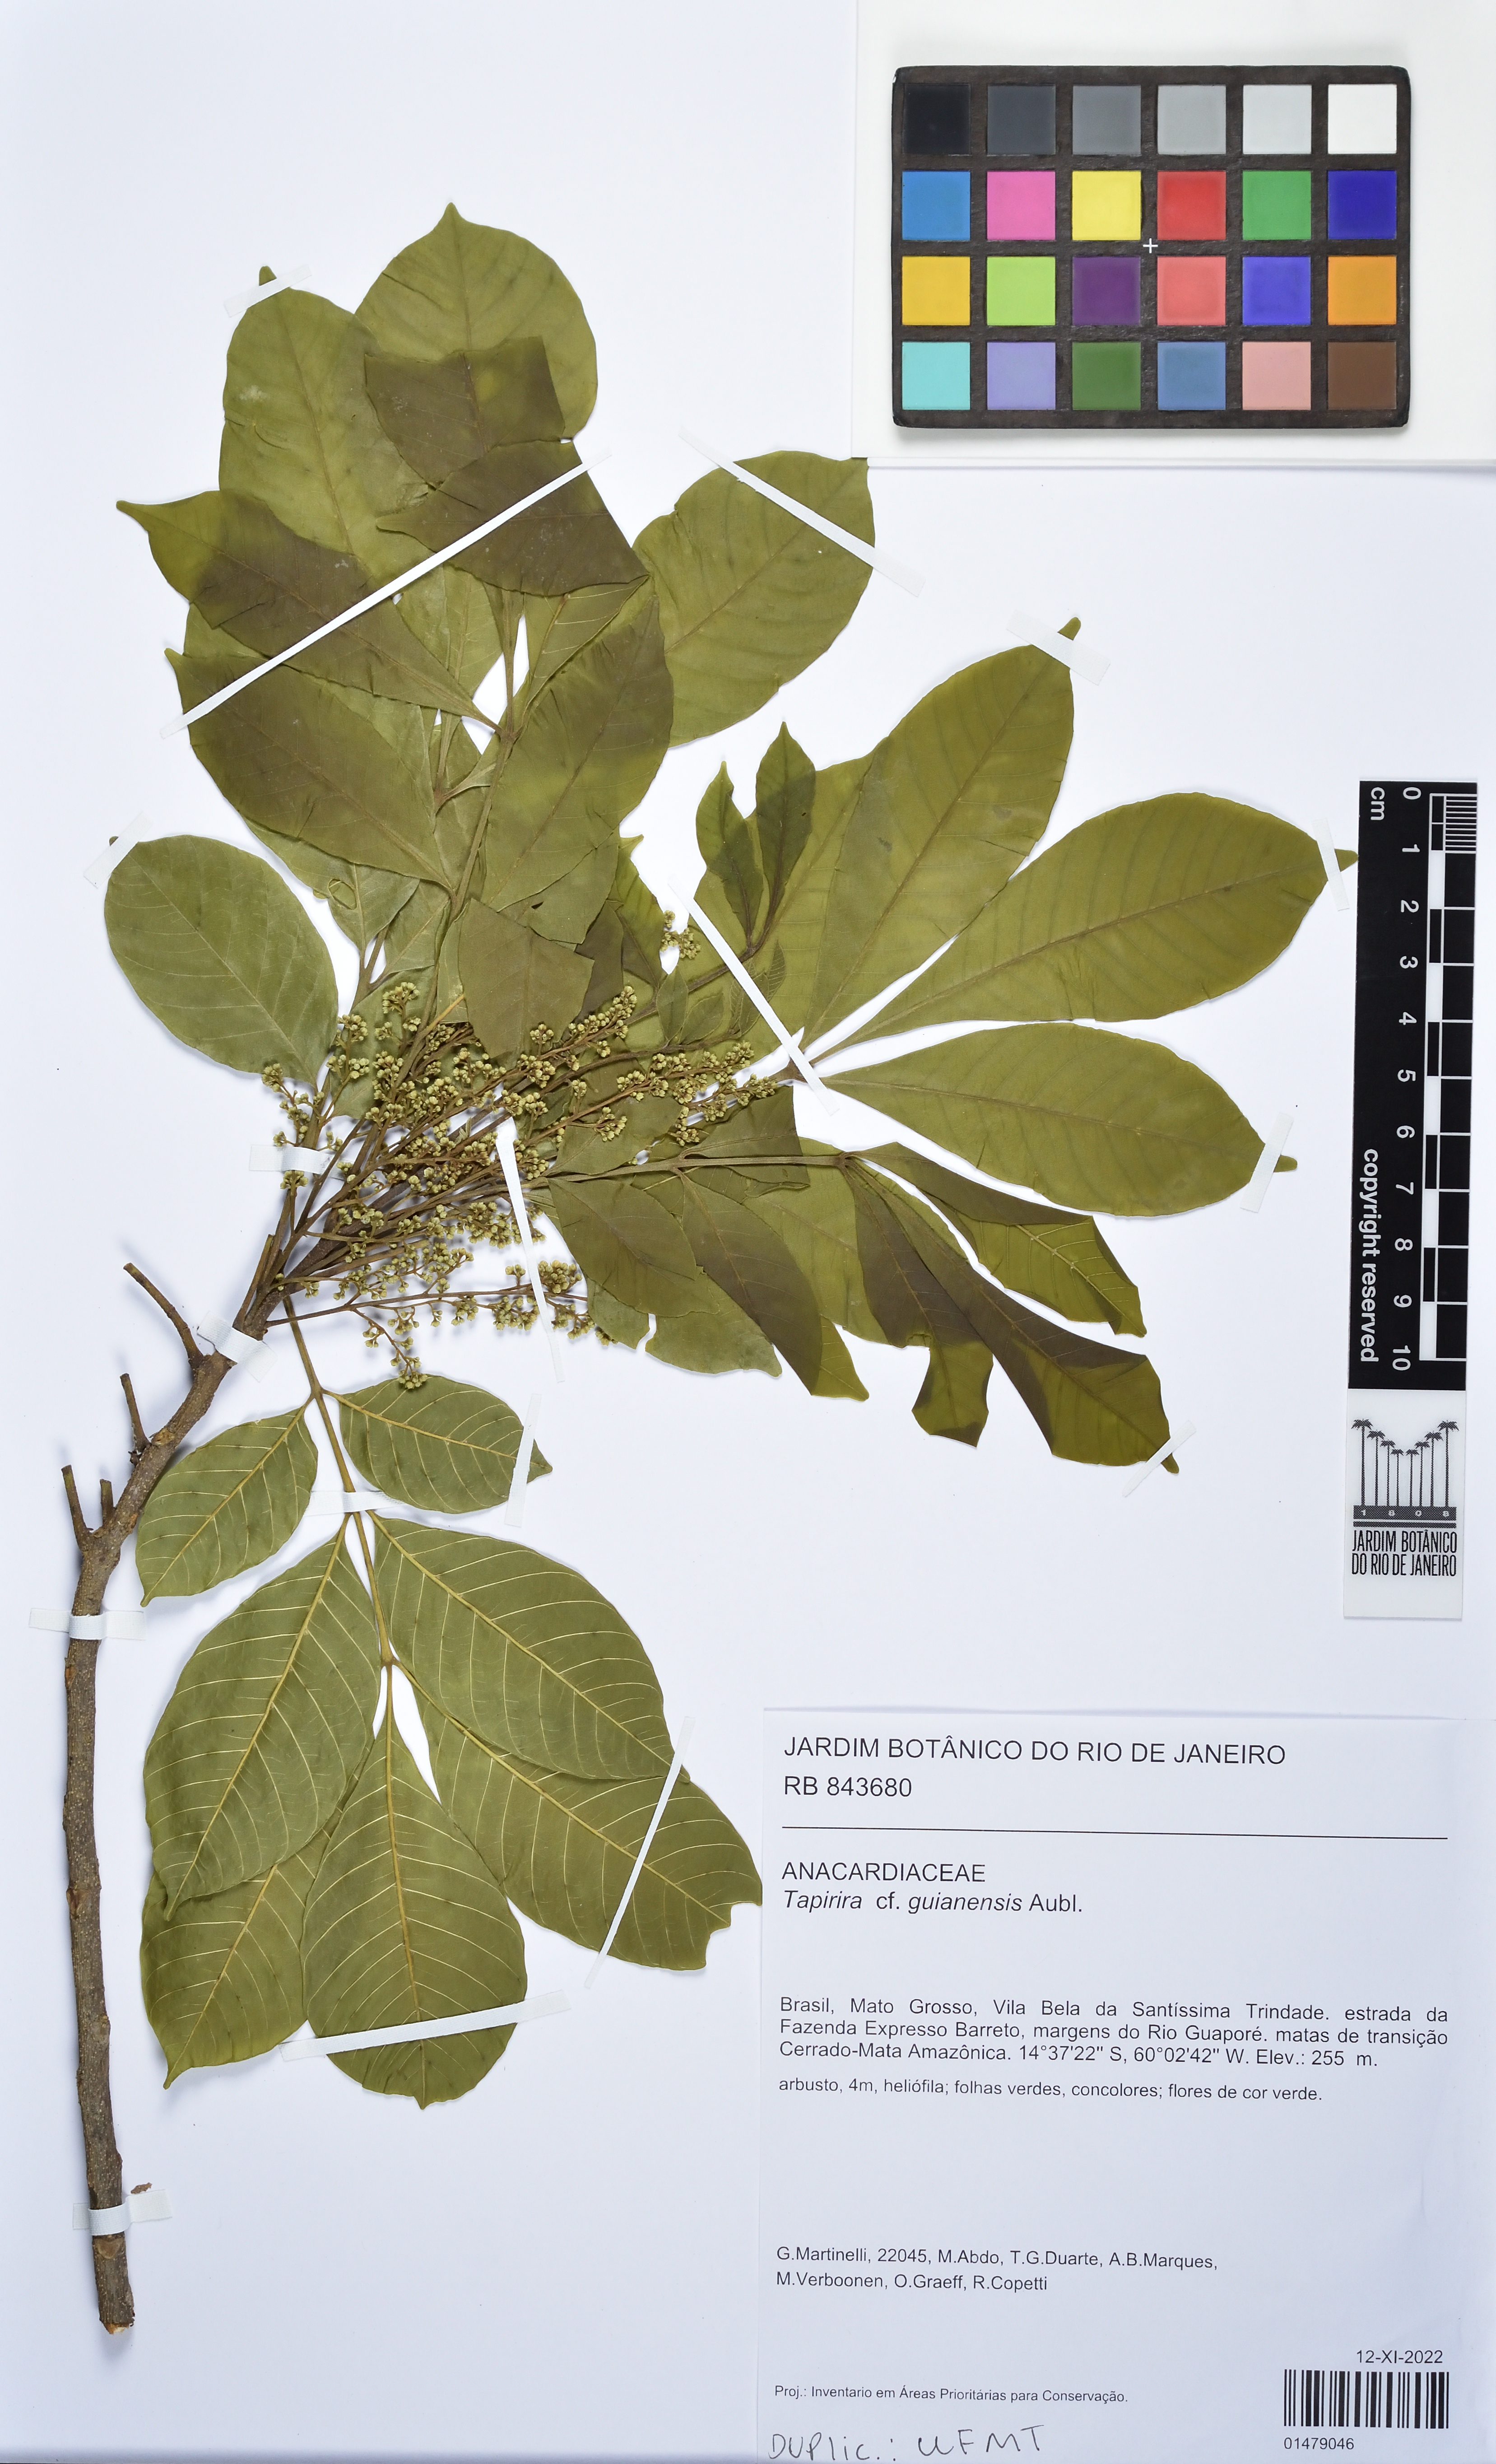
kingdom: Plantae
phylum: Tracheophyta
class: Magnoliopsida
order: Sapindales
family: Anacardiaceae
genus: Tapirira
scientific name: Tapirira guianensis
